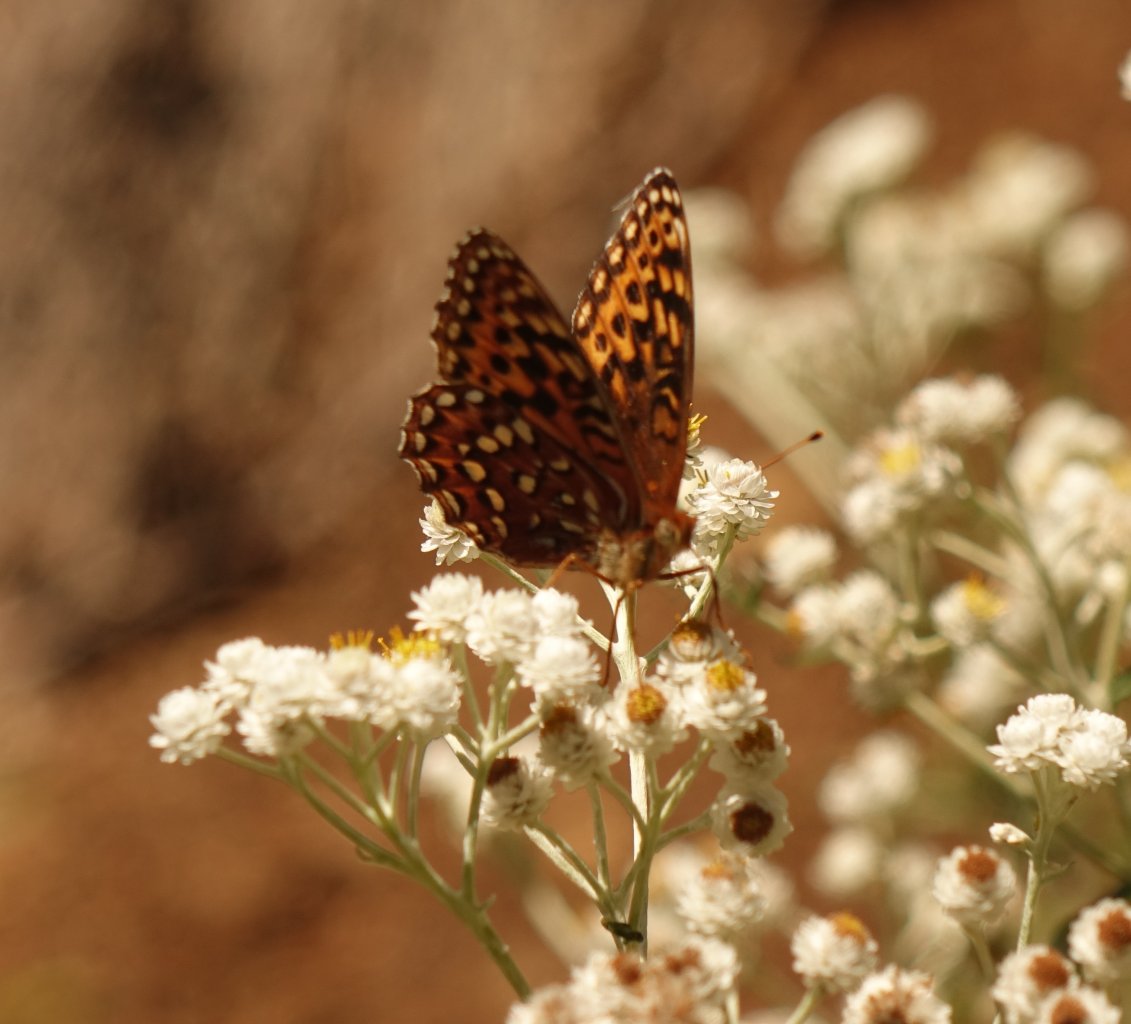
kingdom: Animalia
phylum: Arthropoda
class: Insecta
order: Lepidoptera
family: Nymphalidae
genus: Speyeria
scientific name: Speyeria hydaspe
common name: Hydaspe Fritillary
